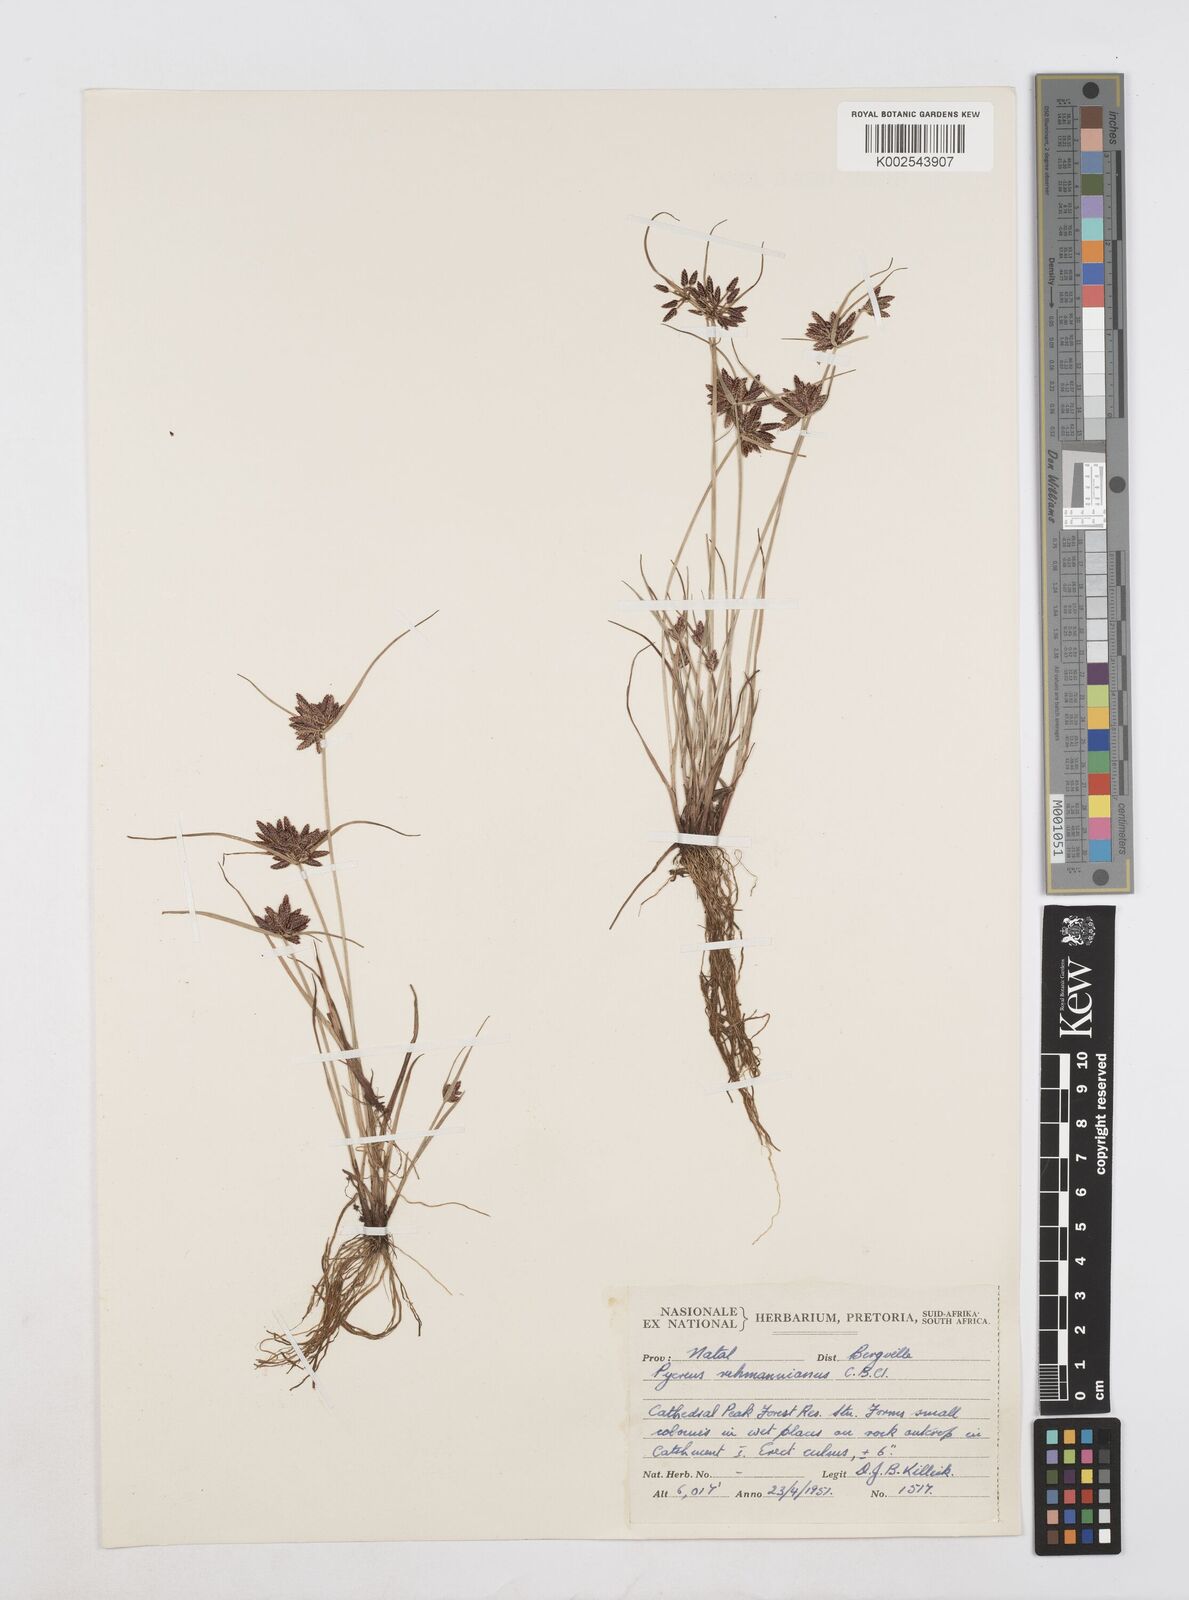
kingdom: Plantae
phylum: Tracheophyta
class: Liliopsida
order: Poales
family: Cyperaceae
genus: Cyperus
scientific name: Cyperus flavescens
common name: Yellow galingale
